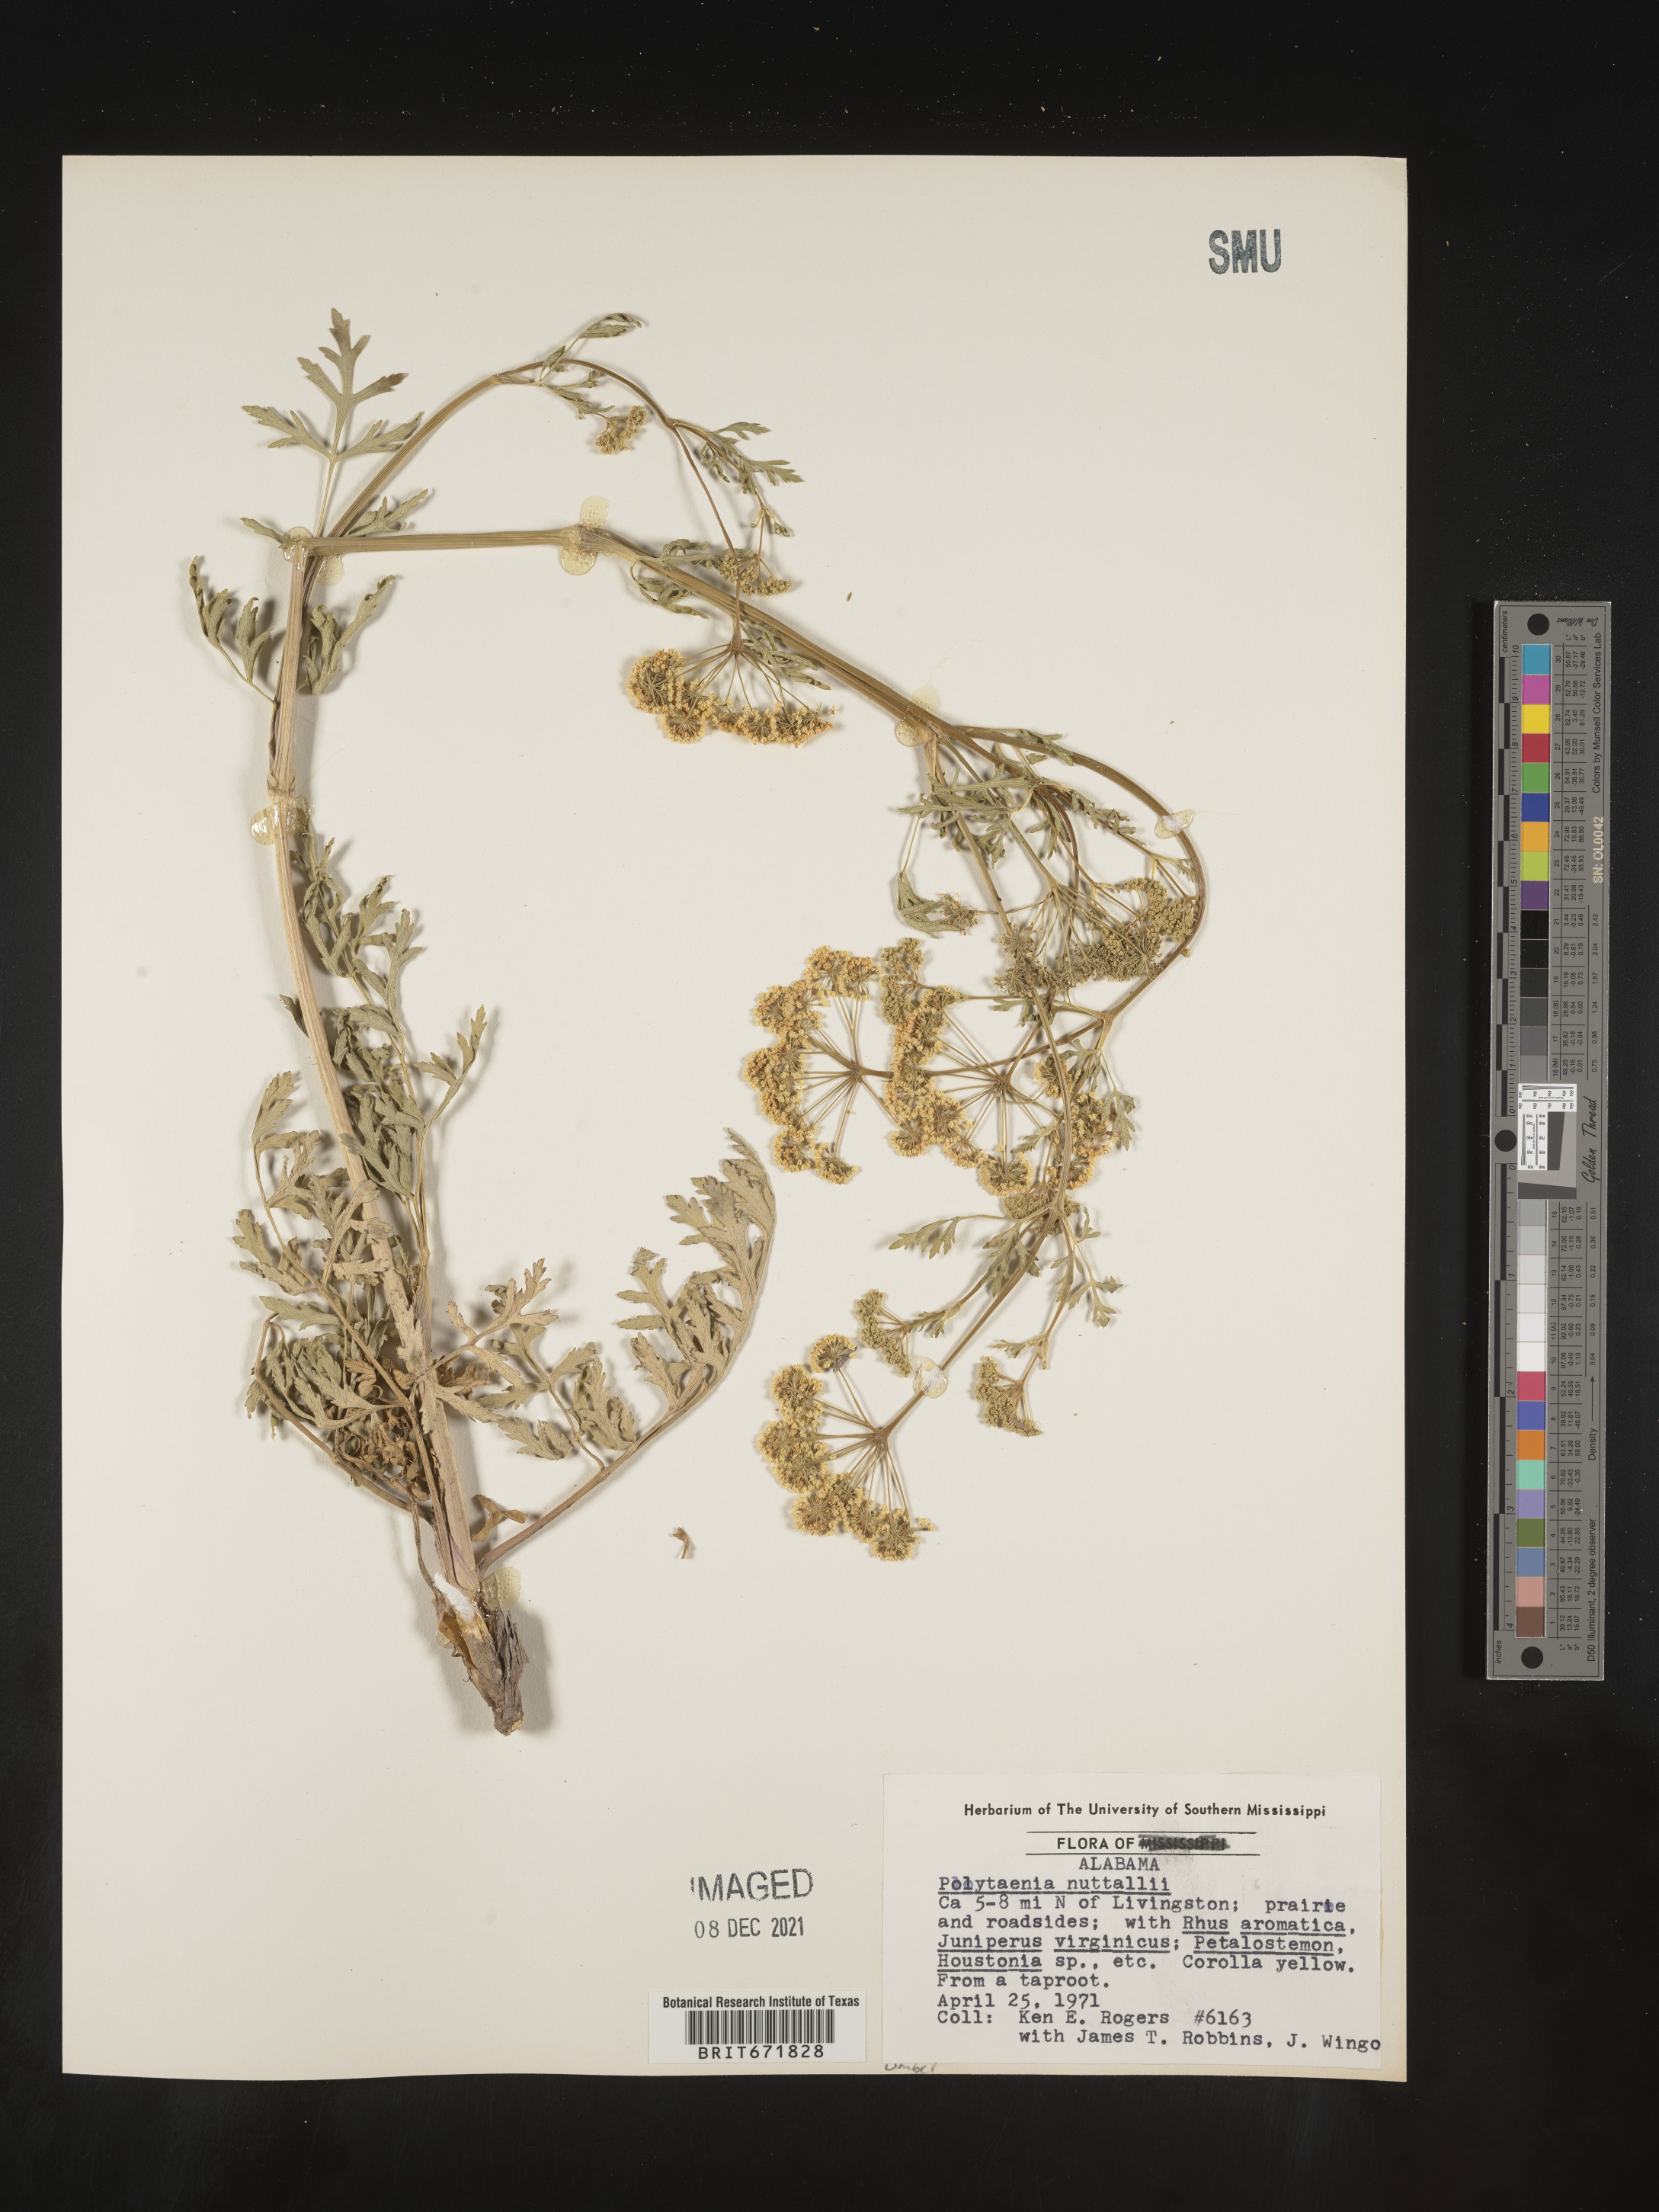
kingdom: Plantae
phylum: Tracheophyta
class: Magnoliopsida
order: Apiales
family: Apiaceae
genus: Polytaenia
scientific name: Polytaenia nuttallii
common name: Prairie-parsley
